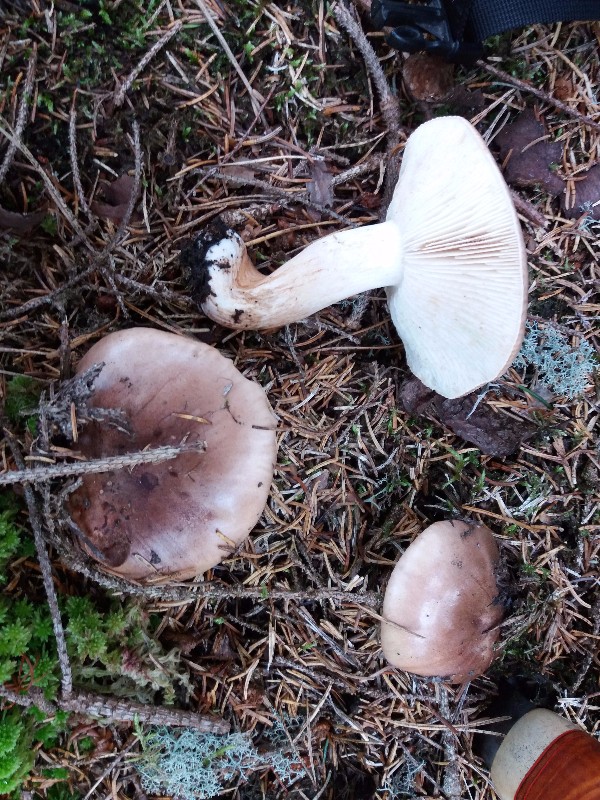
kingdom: Fungi
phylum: Basidiomycota
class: Agaricomycetes
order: Agaricales
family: Tricholomataceae
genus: Tricholoma
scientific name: Tricholoma stans
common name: stolt ridderhat
